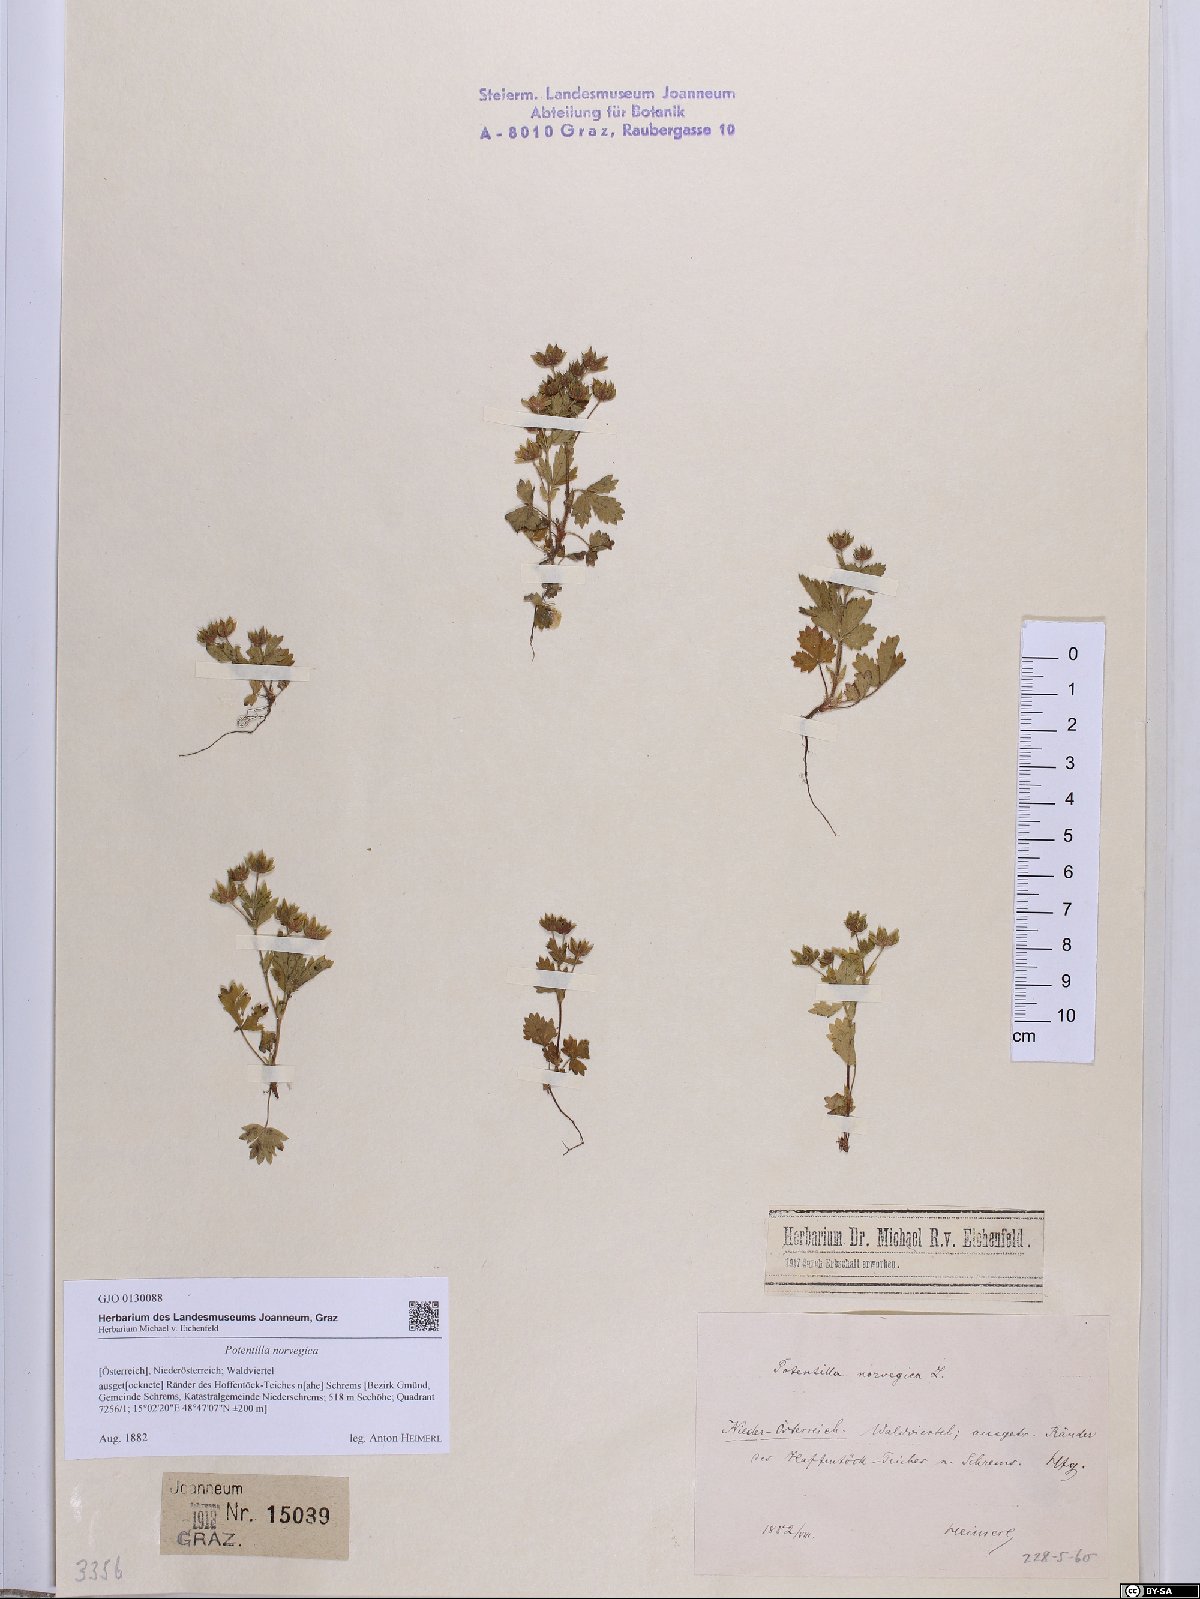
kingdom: Plantae
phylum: Tracheophyta
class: Magnoliopsida
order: Rosales
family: Rosaceae
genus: Potentilla
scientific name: Potentilla norvegica
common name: Ternate-leaved cinquefoil
